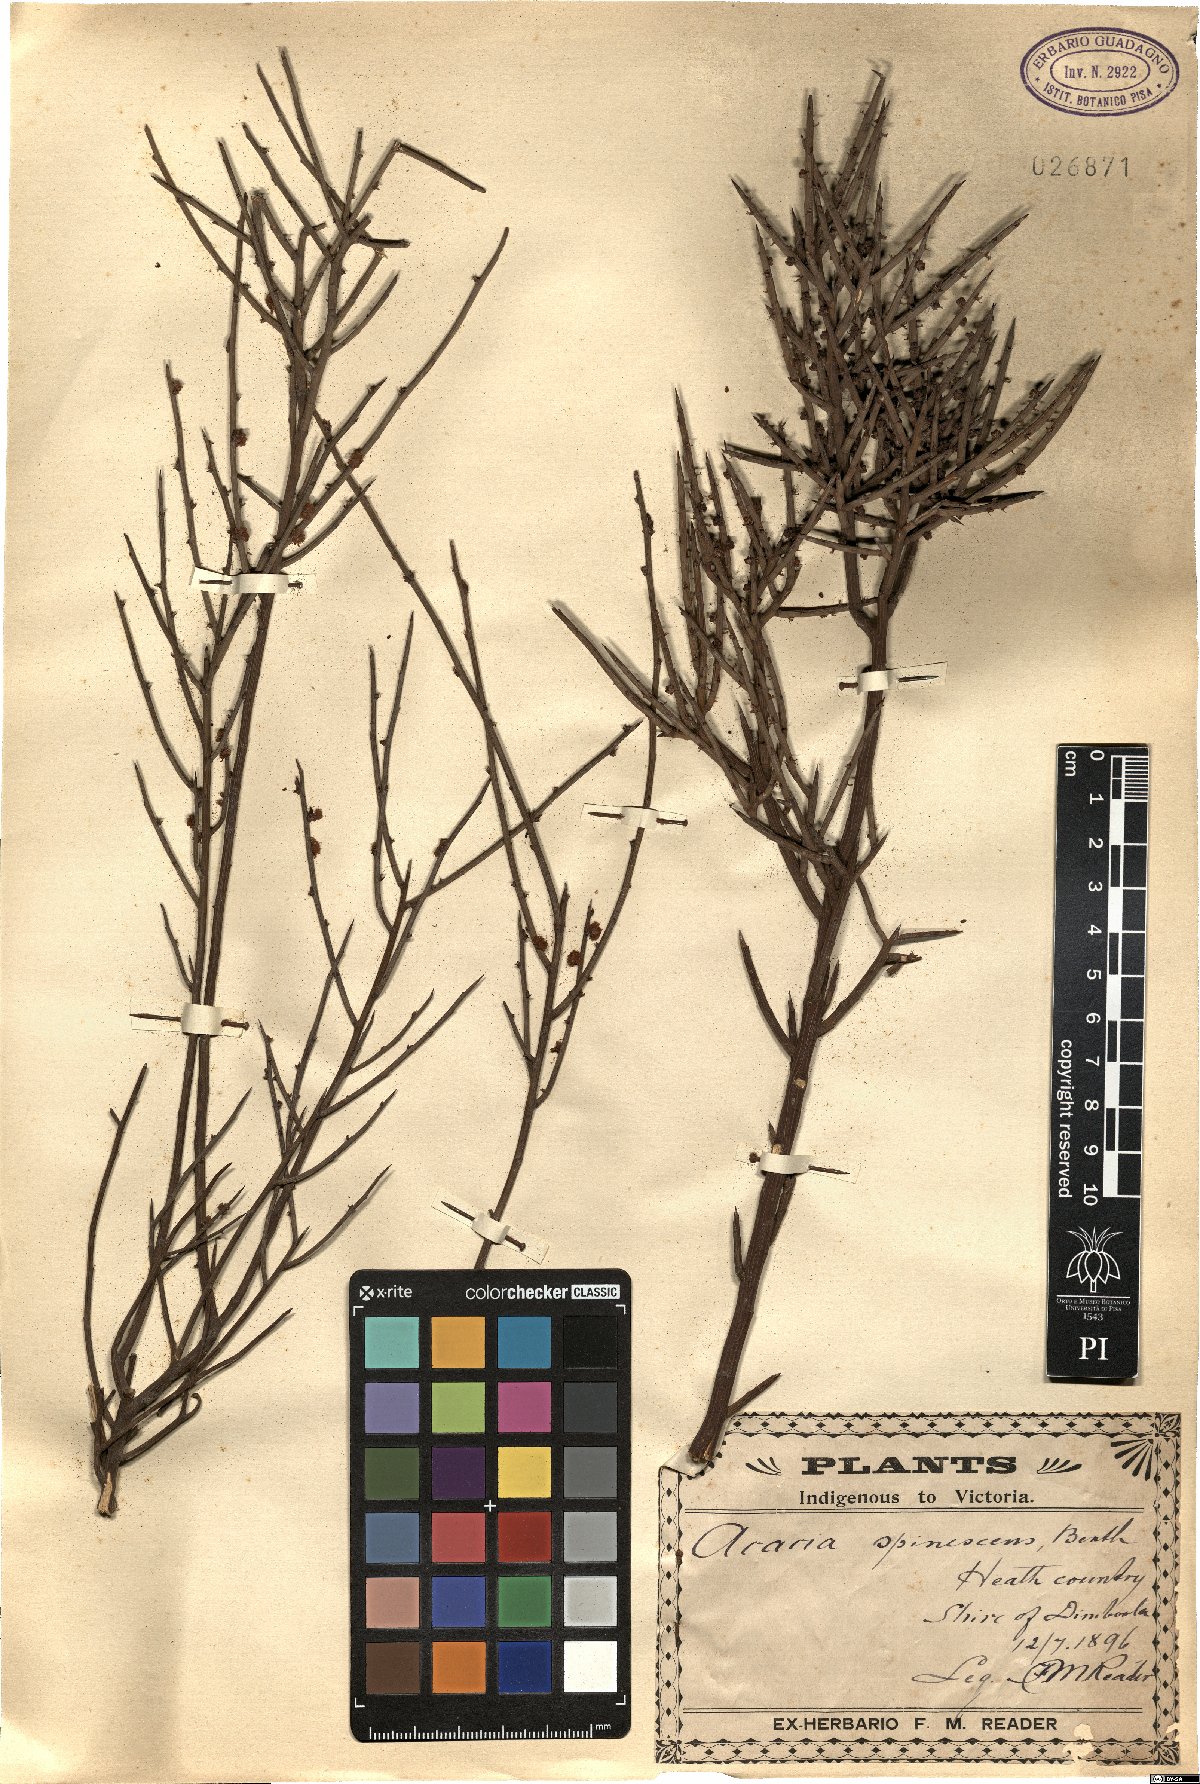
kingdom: Plantae
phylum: Tracheophyta
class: Magnoliopsida
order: Fabales
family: Fabaceae
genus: Acacia
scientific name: Acacia spinescens
